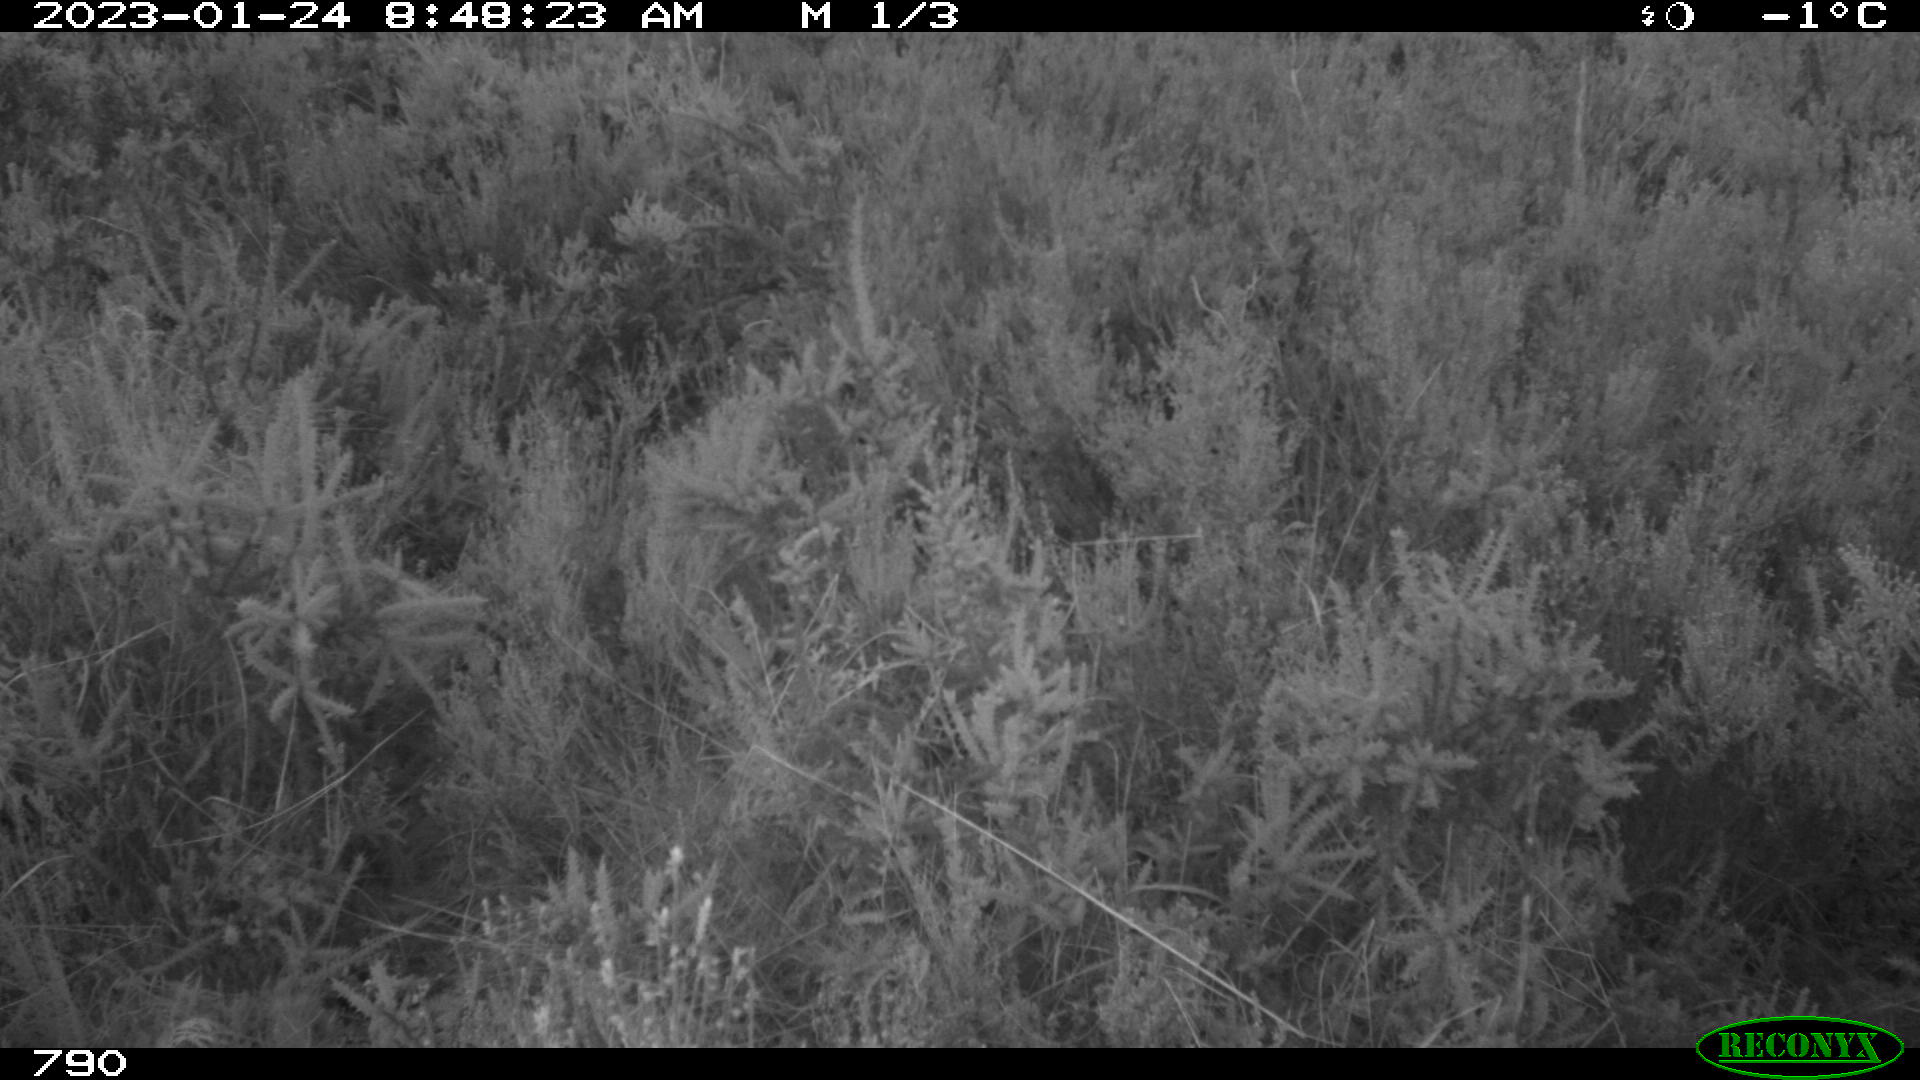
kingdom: Animalia
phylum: Chordata
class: Mammalia
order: Perissodactyla
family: Equidae
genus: Equus
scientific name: Equus caballus
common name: Horse
